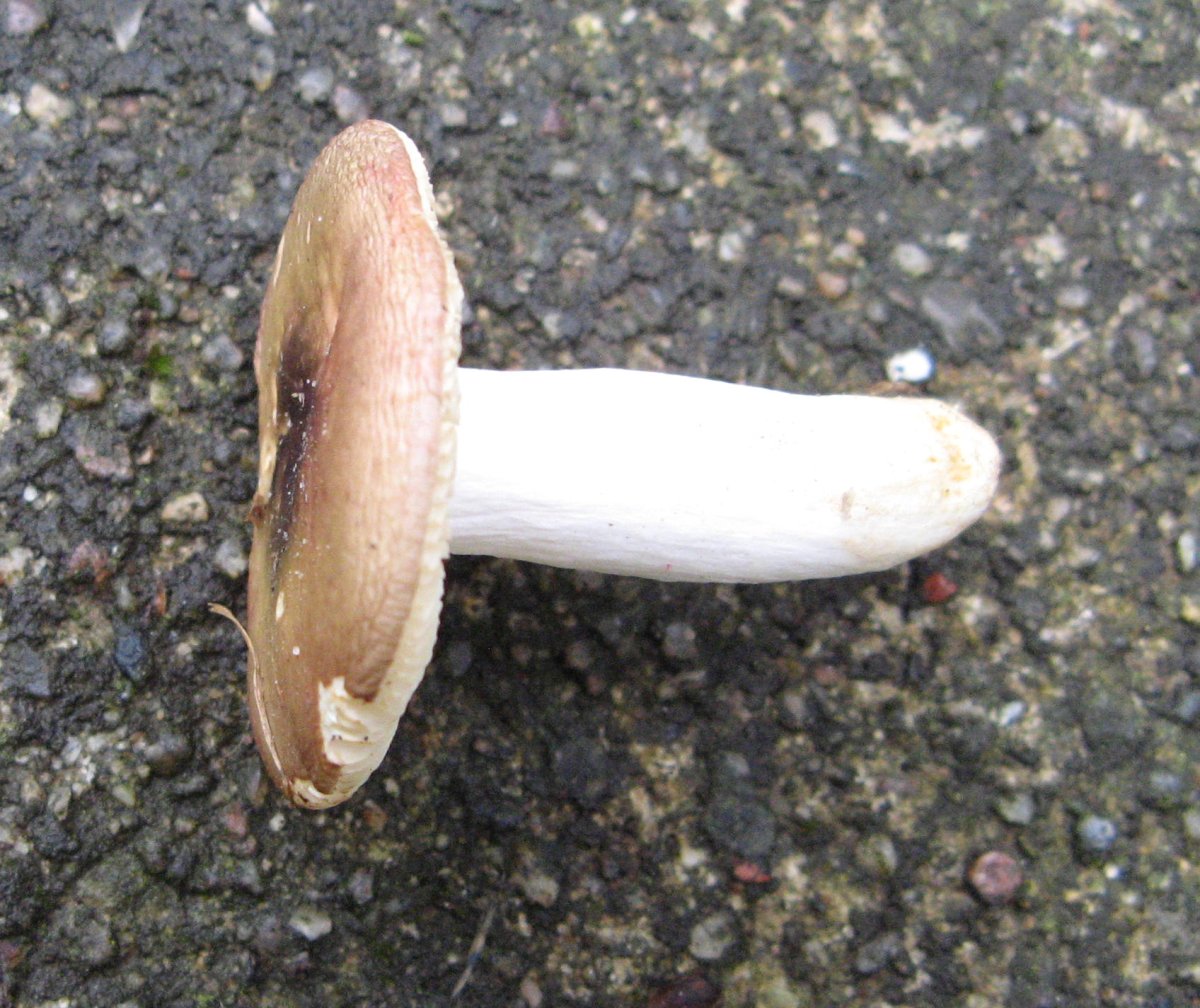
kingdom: Fungi
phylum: Basidiomycota
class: Agaricomycetes
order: Russulales
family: Russulaceae
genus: Russula
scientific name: Russula versicolor
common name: foranderlig skørhat
